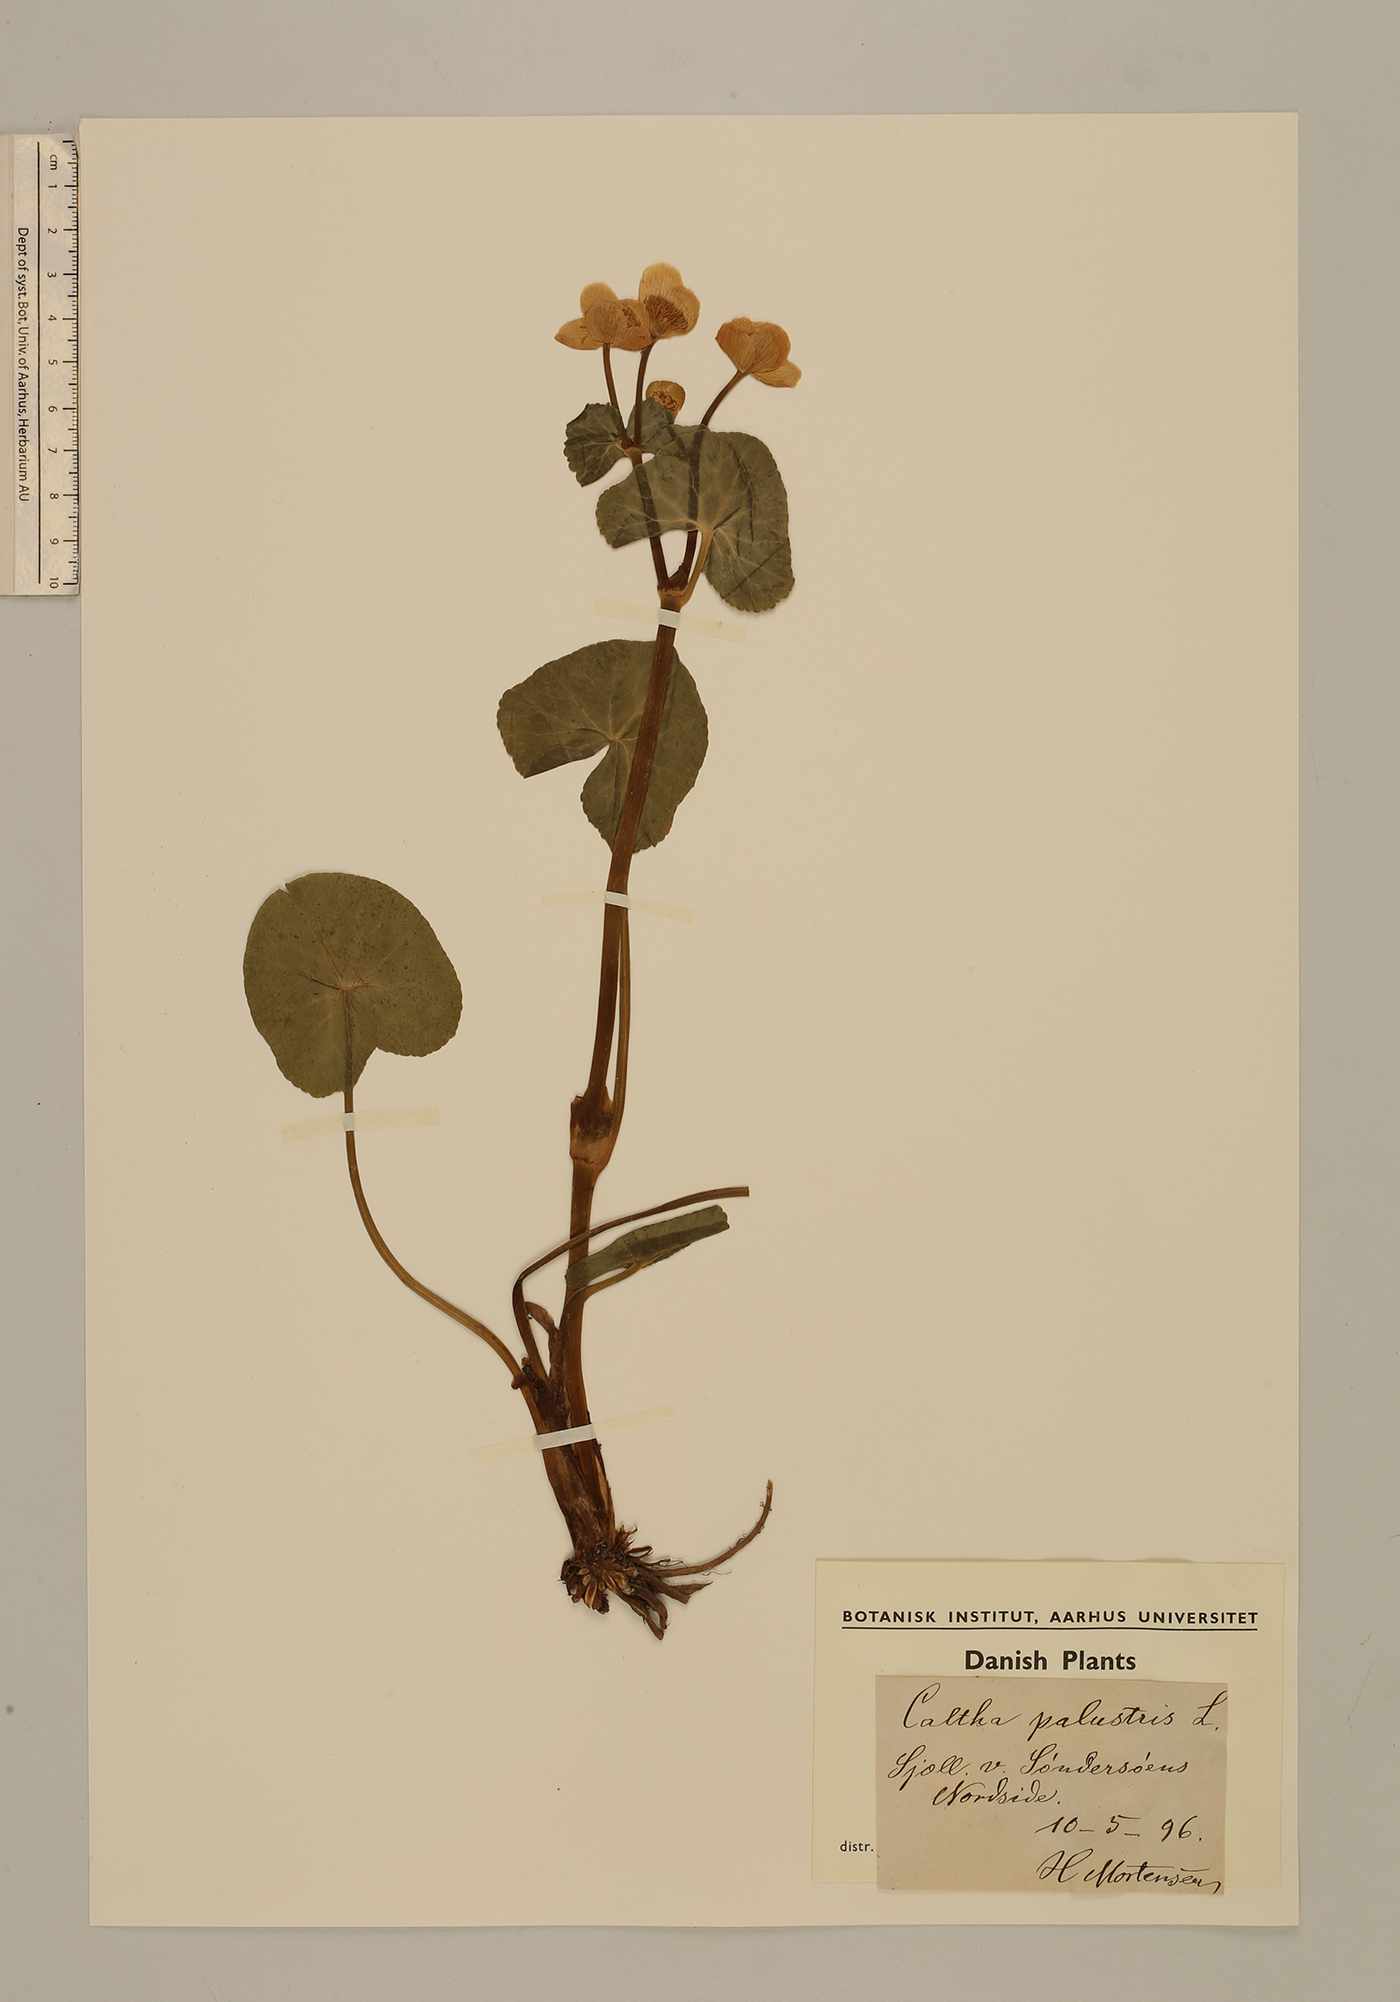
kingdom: Plantae
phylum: Tracheophyta
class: Magnoliopsida
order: Ranunculales
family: Ranunculaceae
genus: Caltha
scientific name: Caltha palustris
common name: Marsh marigold
